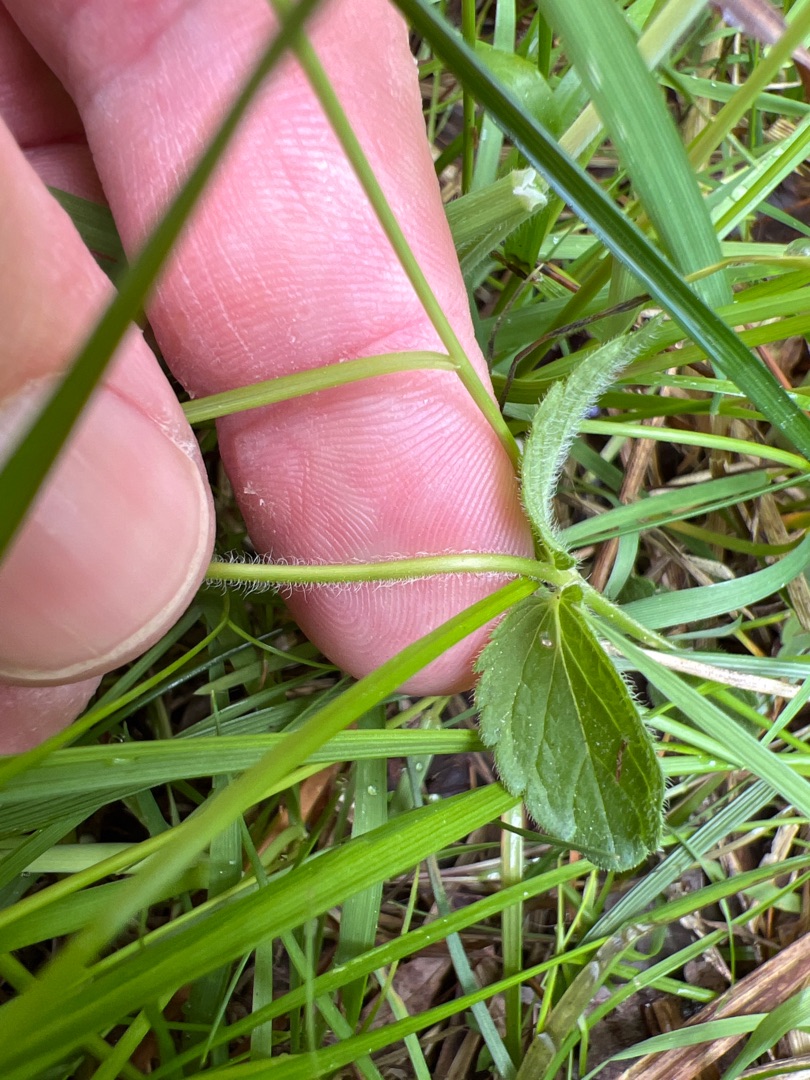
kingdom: Plantae
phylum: Tracheophyta
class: Magnoliopsida
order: Lamiales
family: Plantaginaceae
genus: Veronica
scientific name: Veronica chamaedrys
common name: Tveskægget ærenpris
